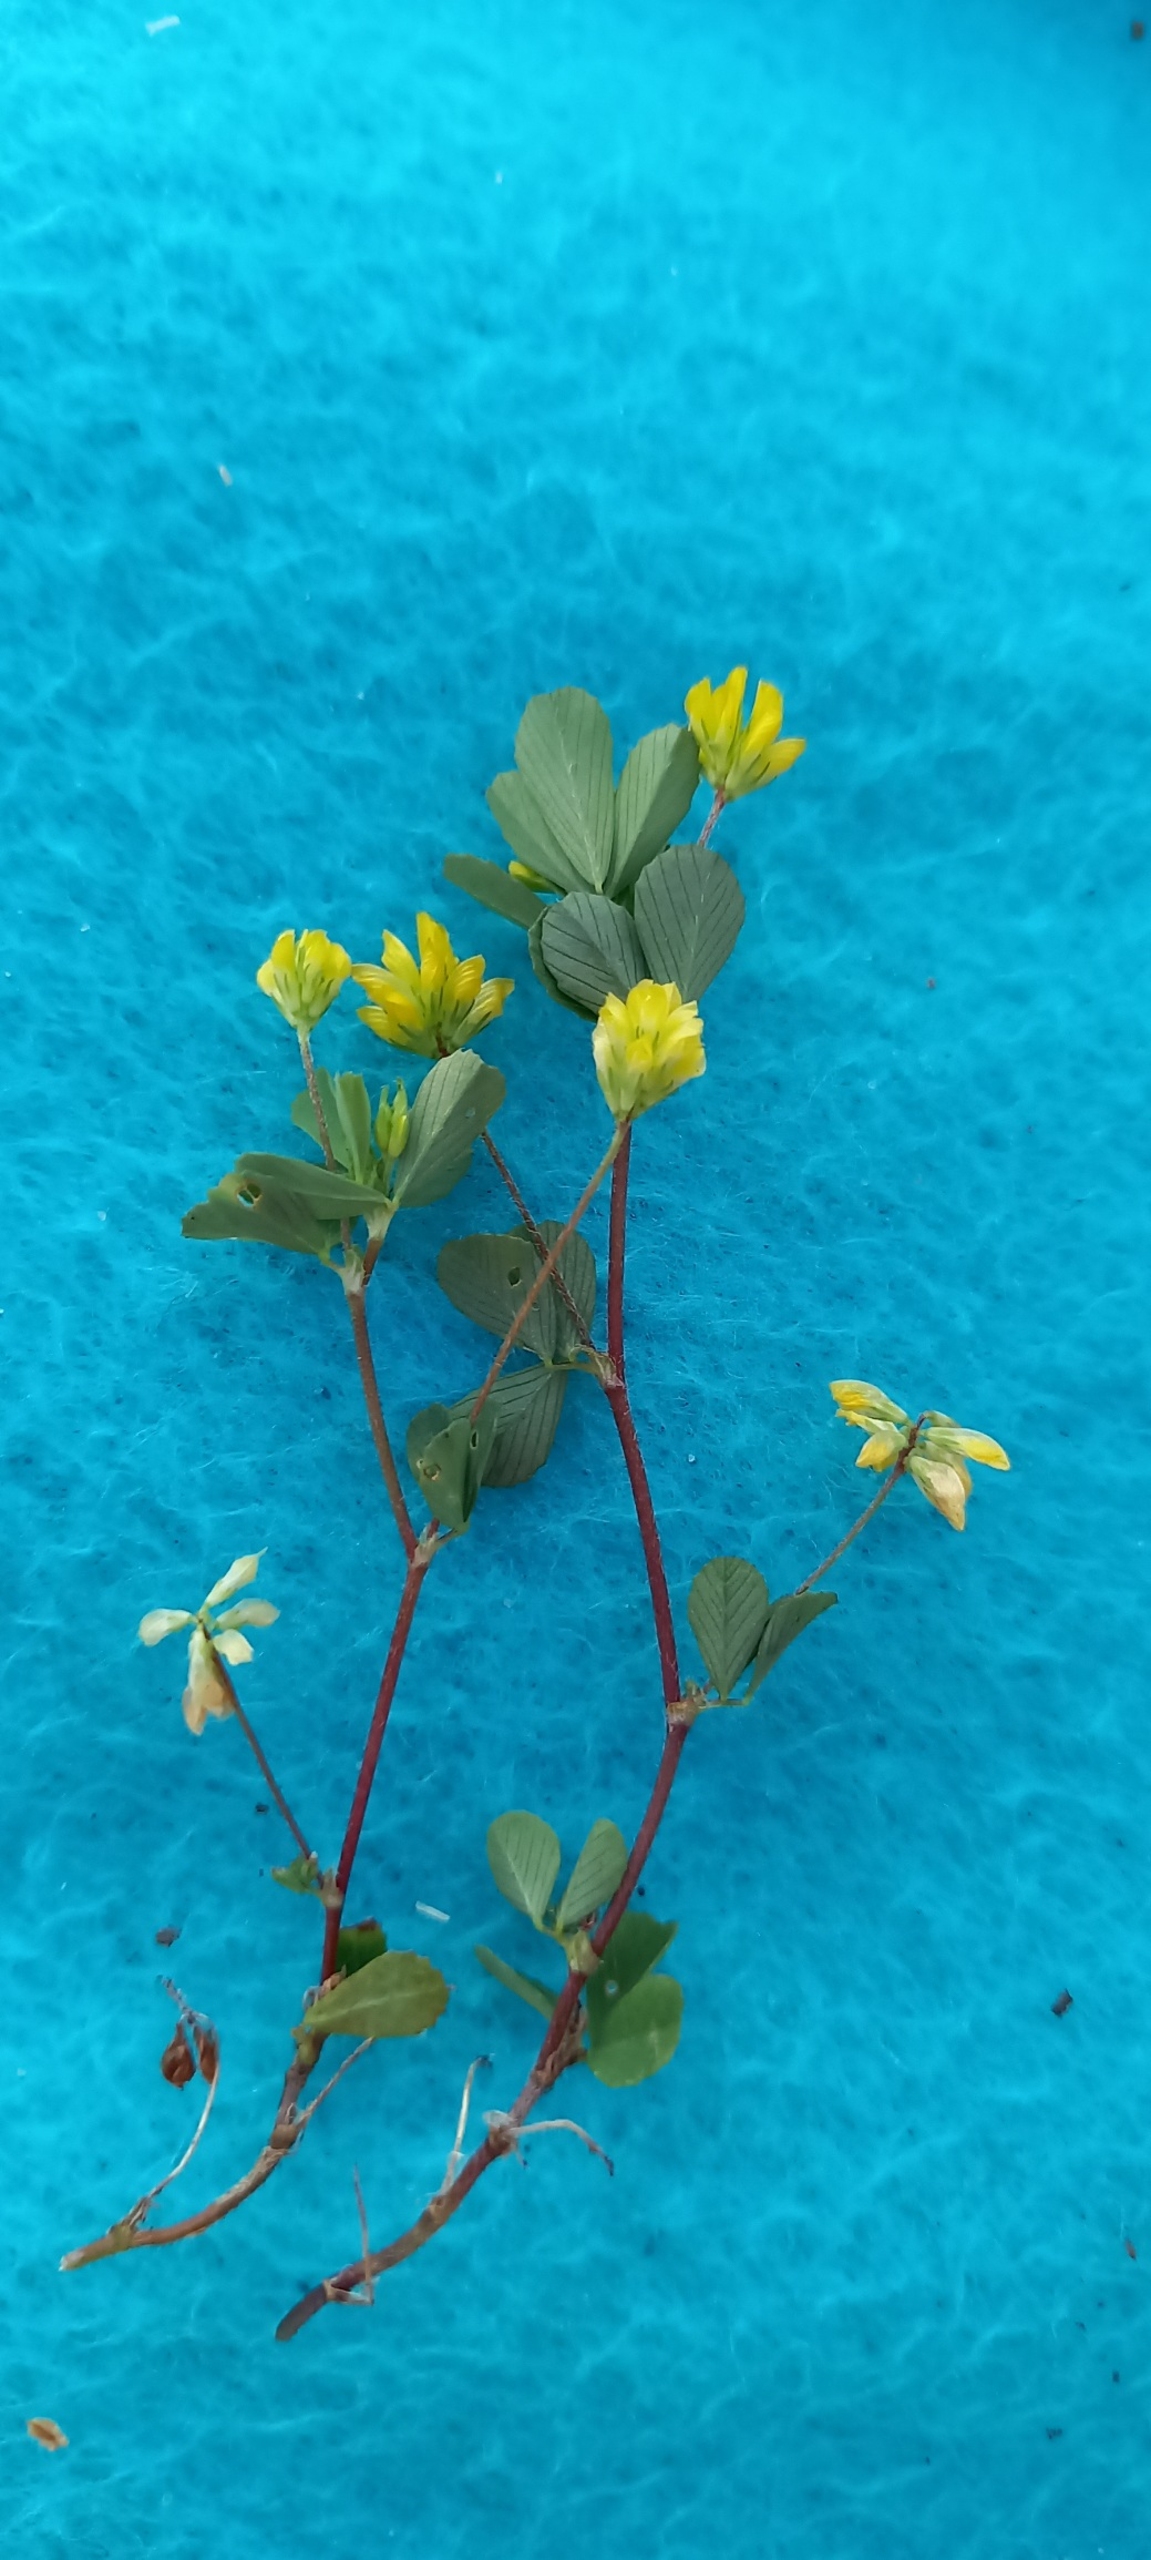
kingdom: Plantae
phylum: Tracheophyta
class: Magnoliopsida
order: Fabales
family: Fabaceae
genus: Trifolium
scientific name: Trifolium dubium
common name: Fin kløver
